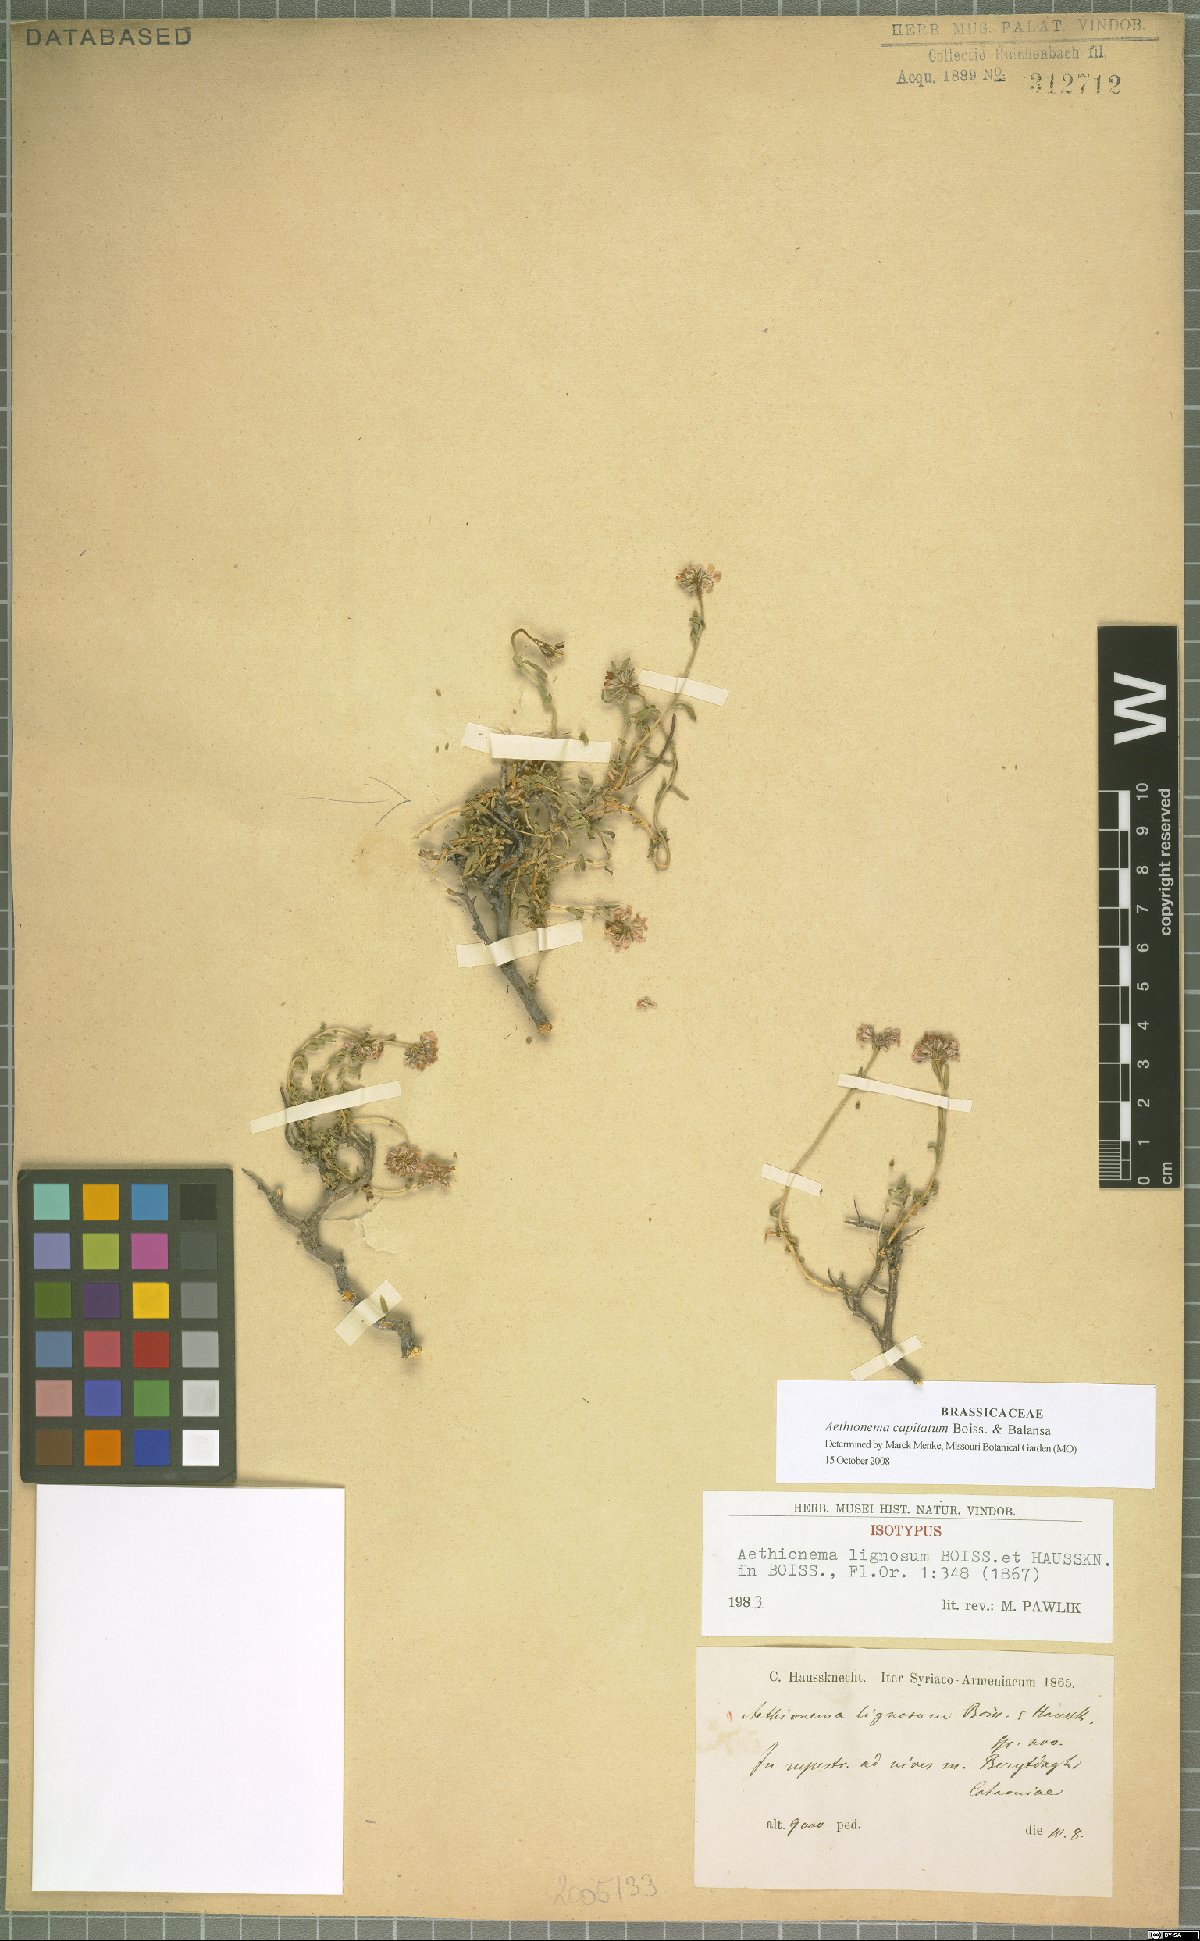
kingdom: Plantae
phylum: Tracheophyta
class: Magnoliopsida
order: Brassicales
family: Brassicaceae
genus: Aethionema
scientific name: Aethionema capitatum
